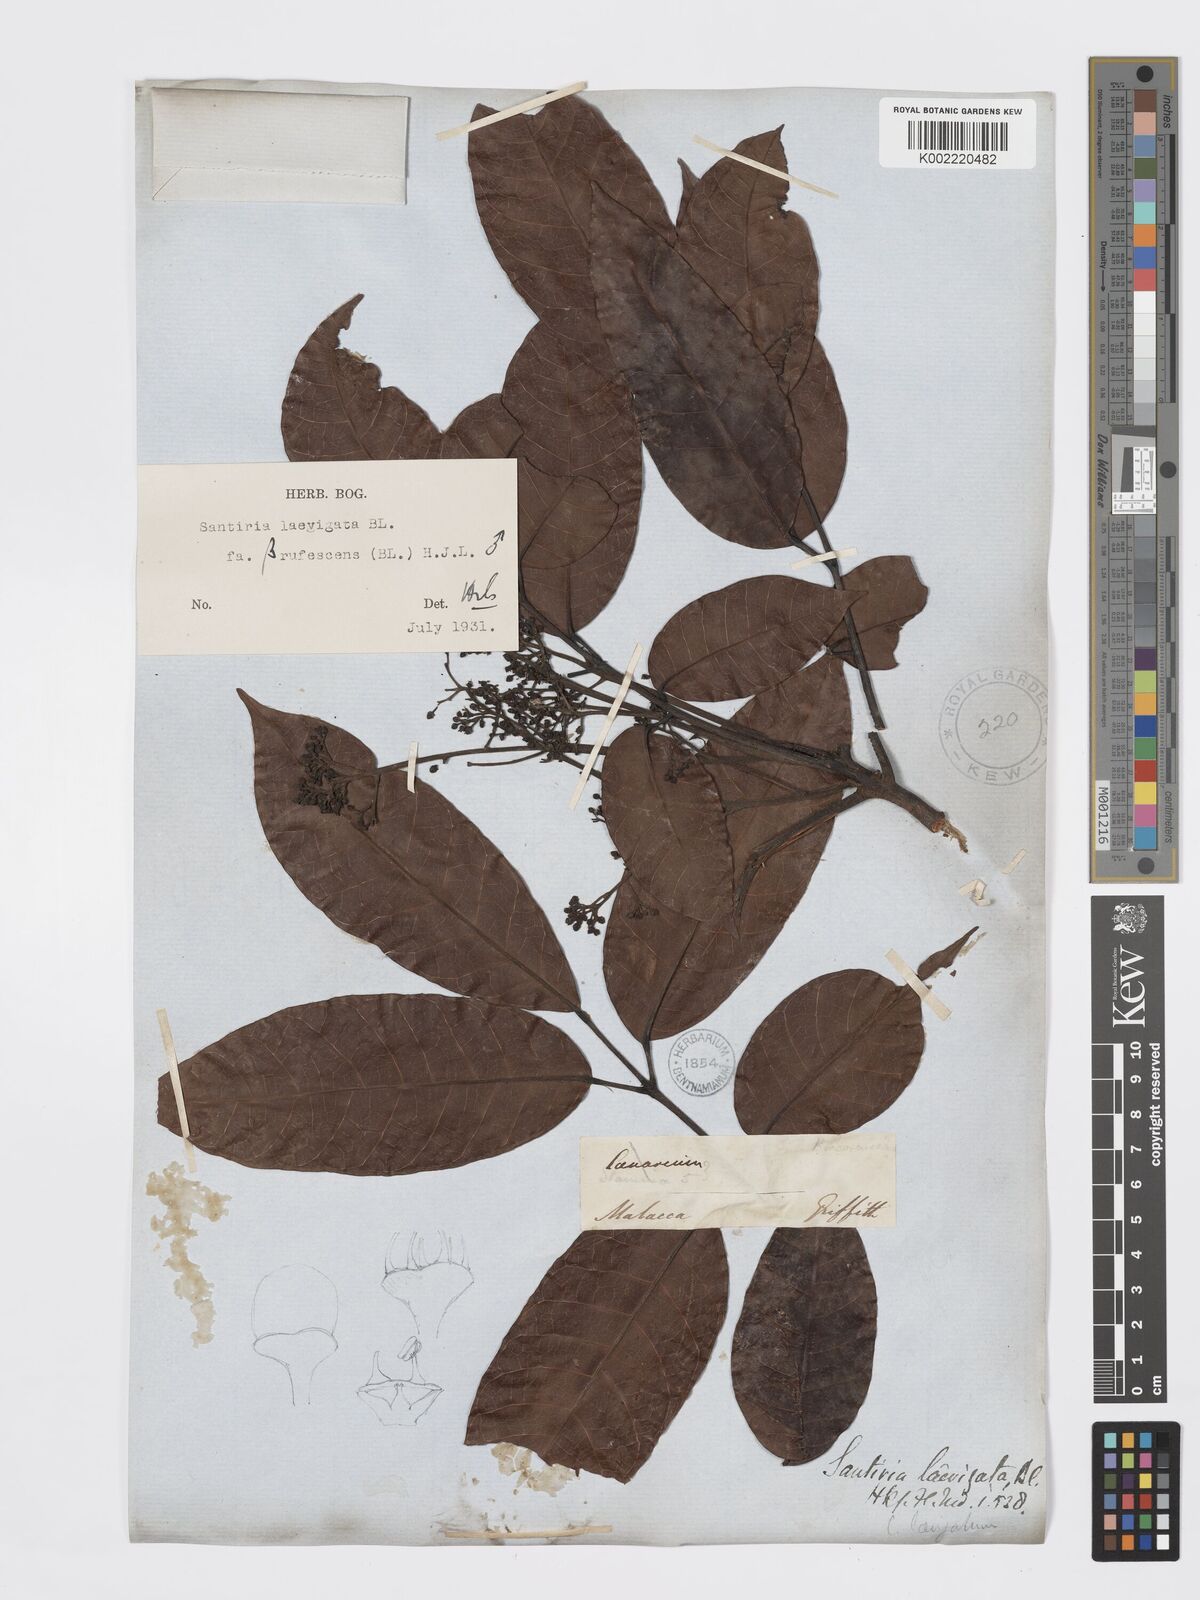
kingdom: Plantae
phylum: Tracheophyta
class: Magnoliopsida
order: Sapindales
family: Burseraceae
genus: Santiria
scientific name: Santiria laevigata
